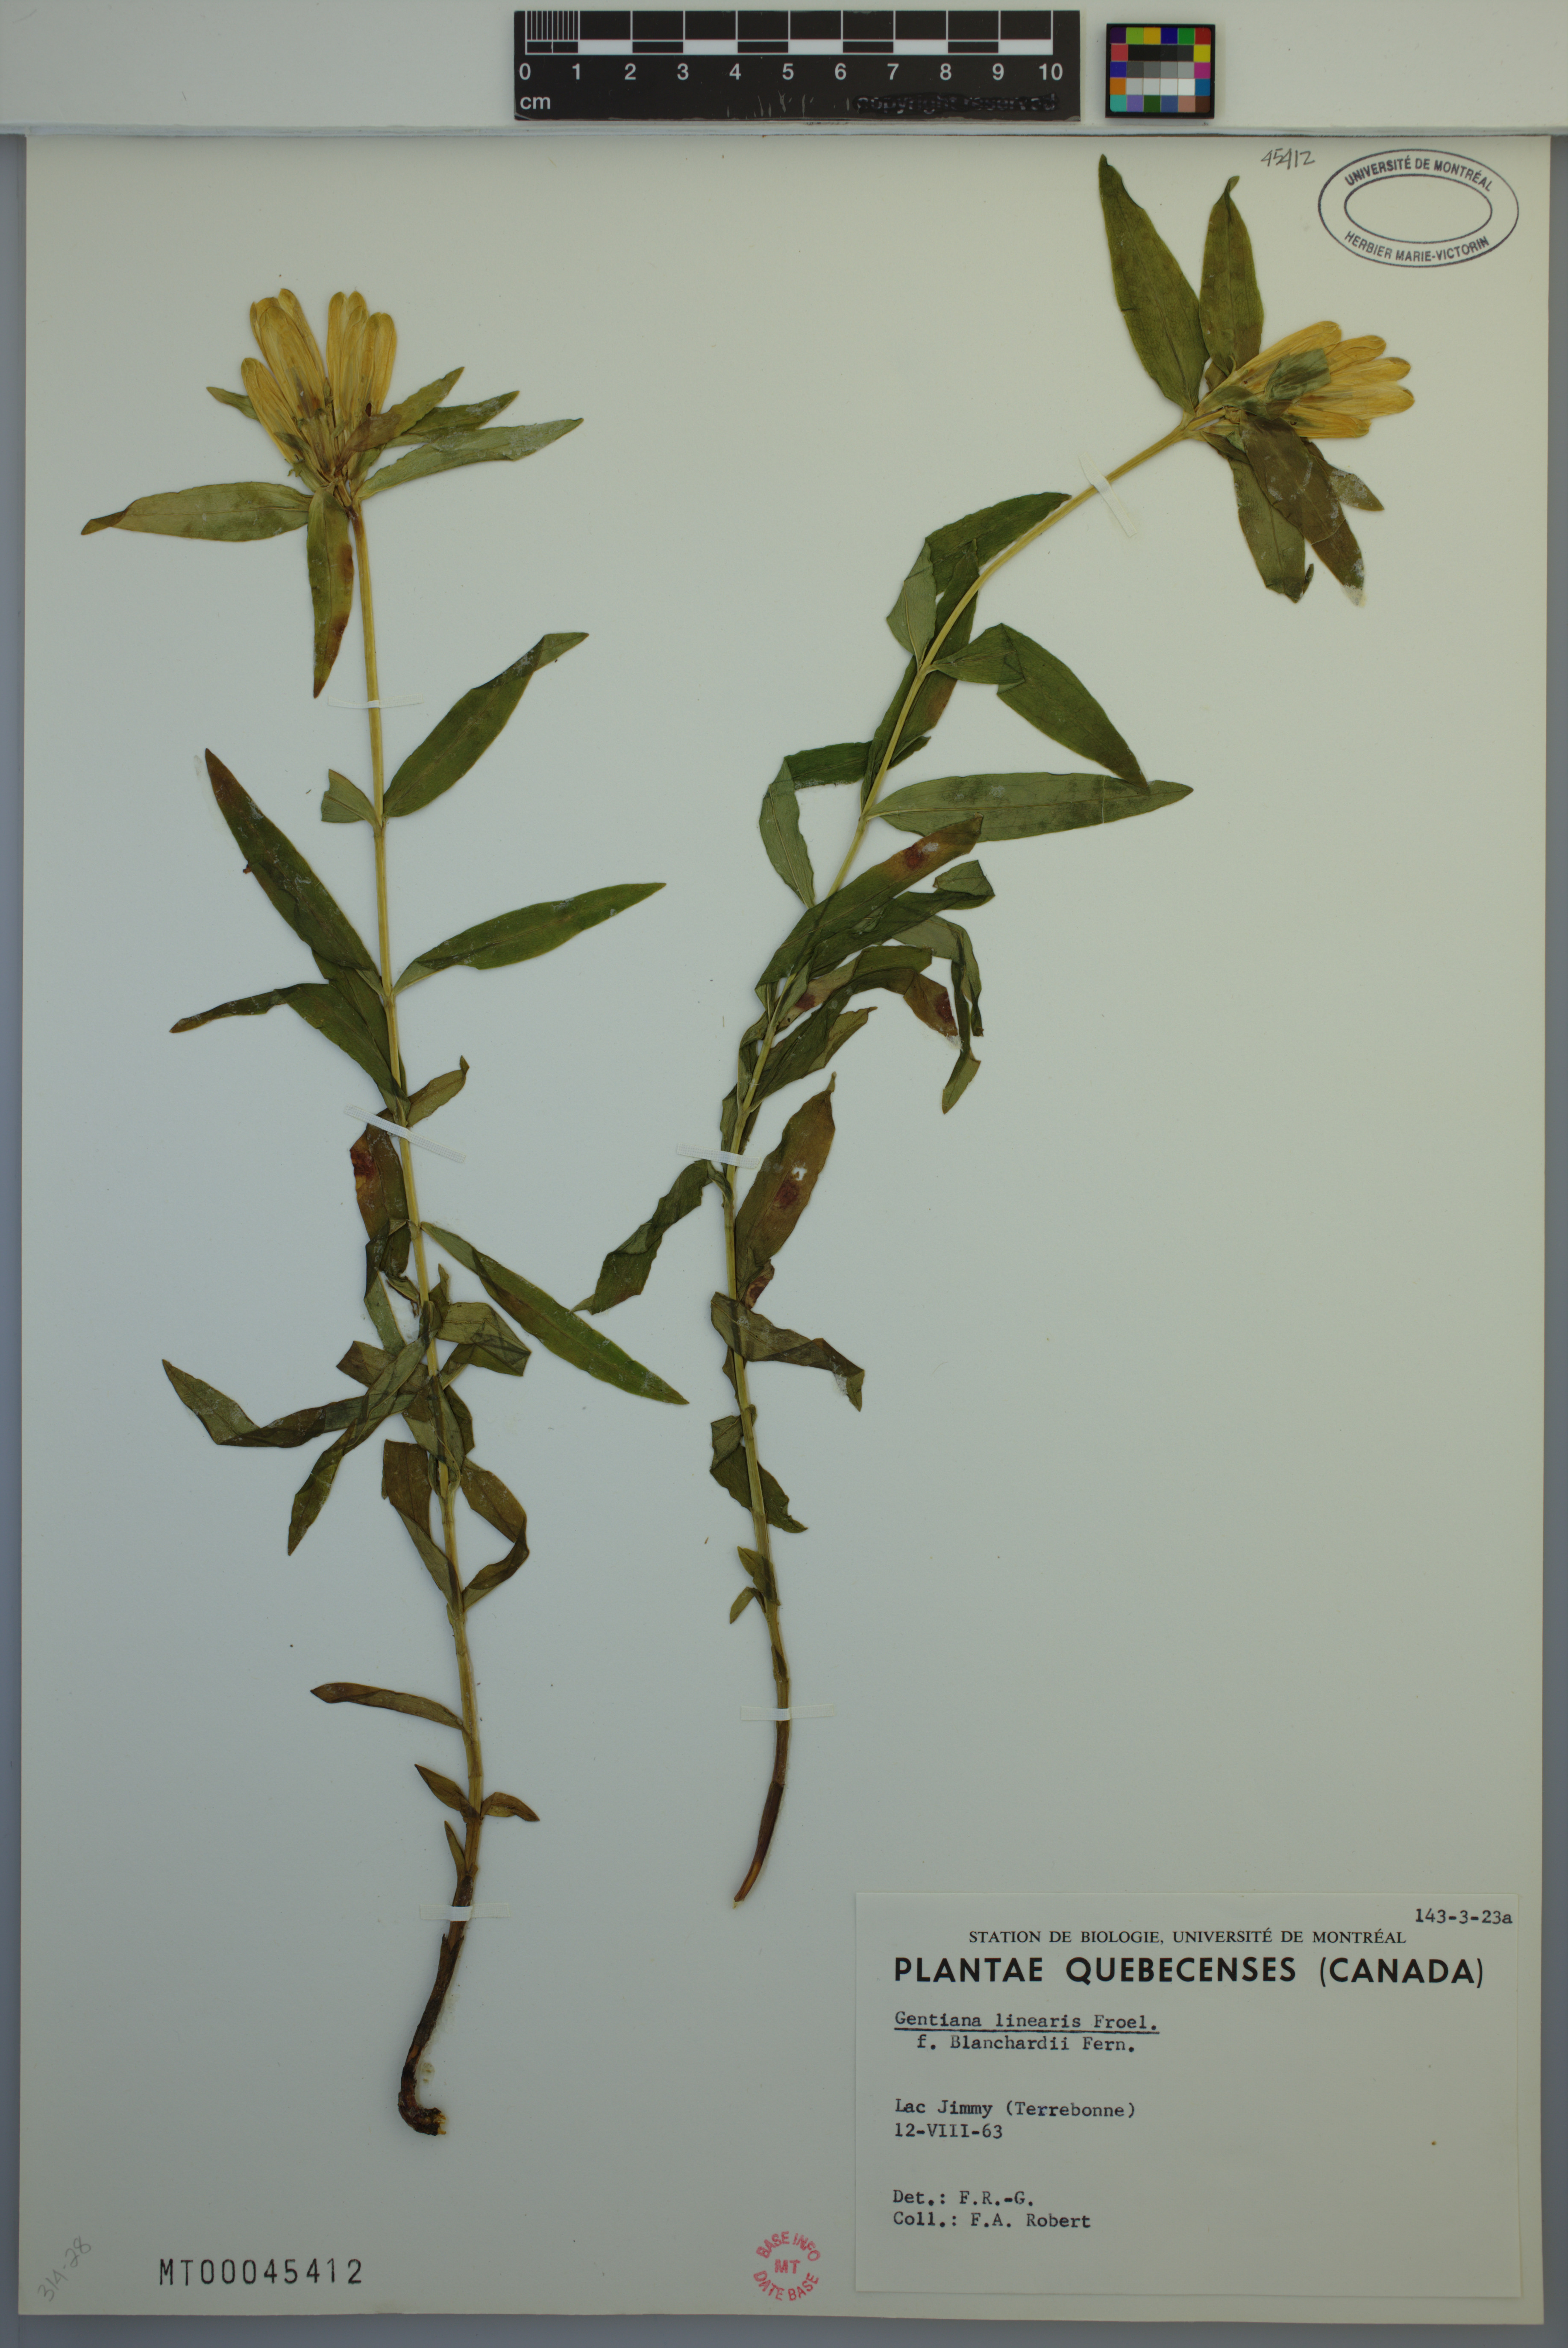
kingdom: Plantae
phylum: Tracheophyta
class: Magnoliopsida
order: Gentianales
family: Gentianaceae
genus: Gentiana
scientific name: Gentiana linearis
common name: Bastard gentian
